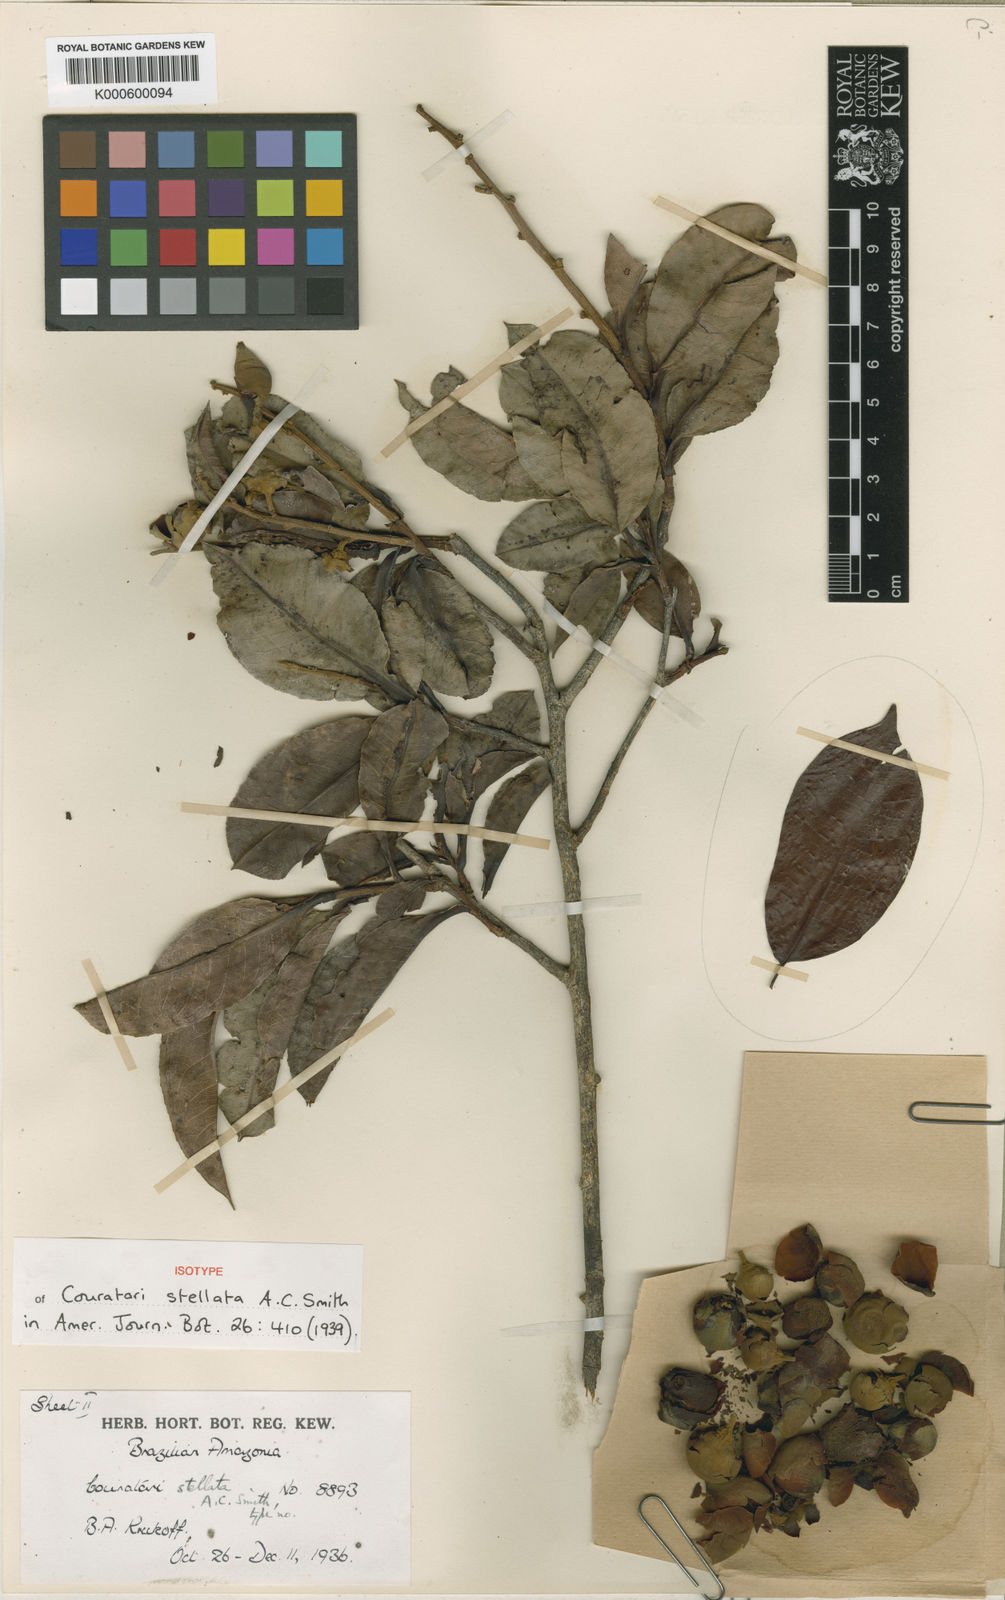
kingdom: Plantae
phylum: Tracheophyta
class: Magnoliopsida
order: Ericales
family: Lecythidaceae
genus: Couratari
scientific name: Couratari stellata
